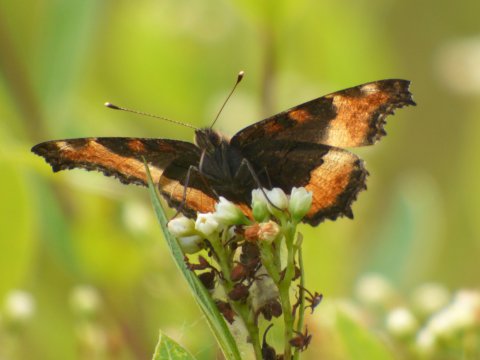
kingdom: Animalia
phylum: Arthropoda
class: Insecta
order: Lepidoptera
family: Nymphalidae
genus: Aglais
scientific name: Aglais milberti
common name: Milbert's Tortoiseshell
